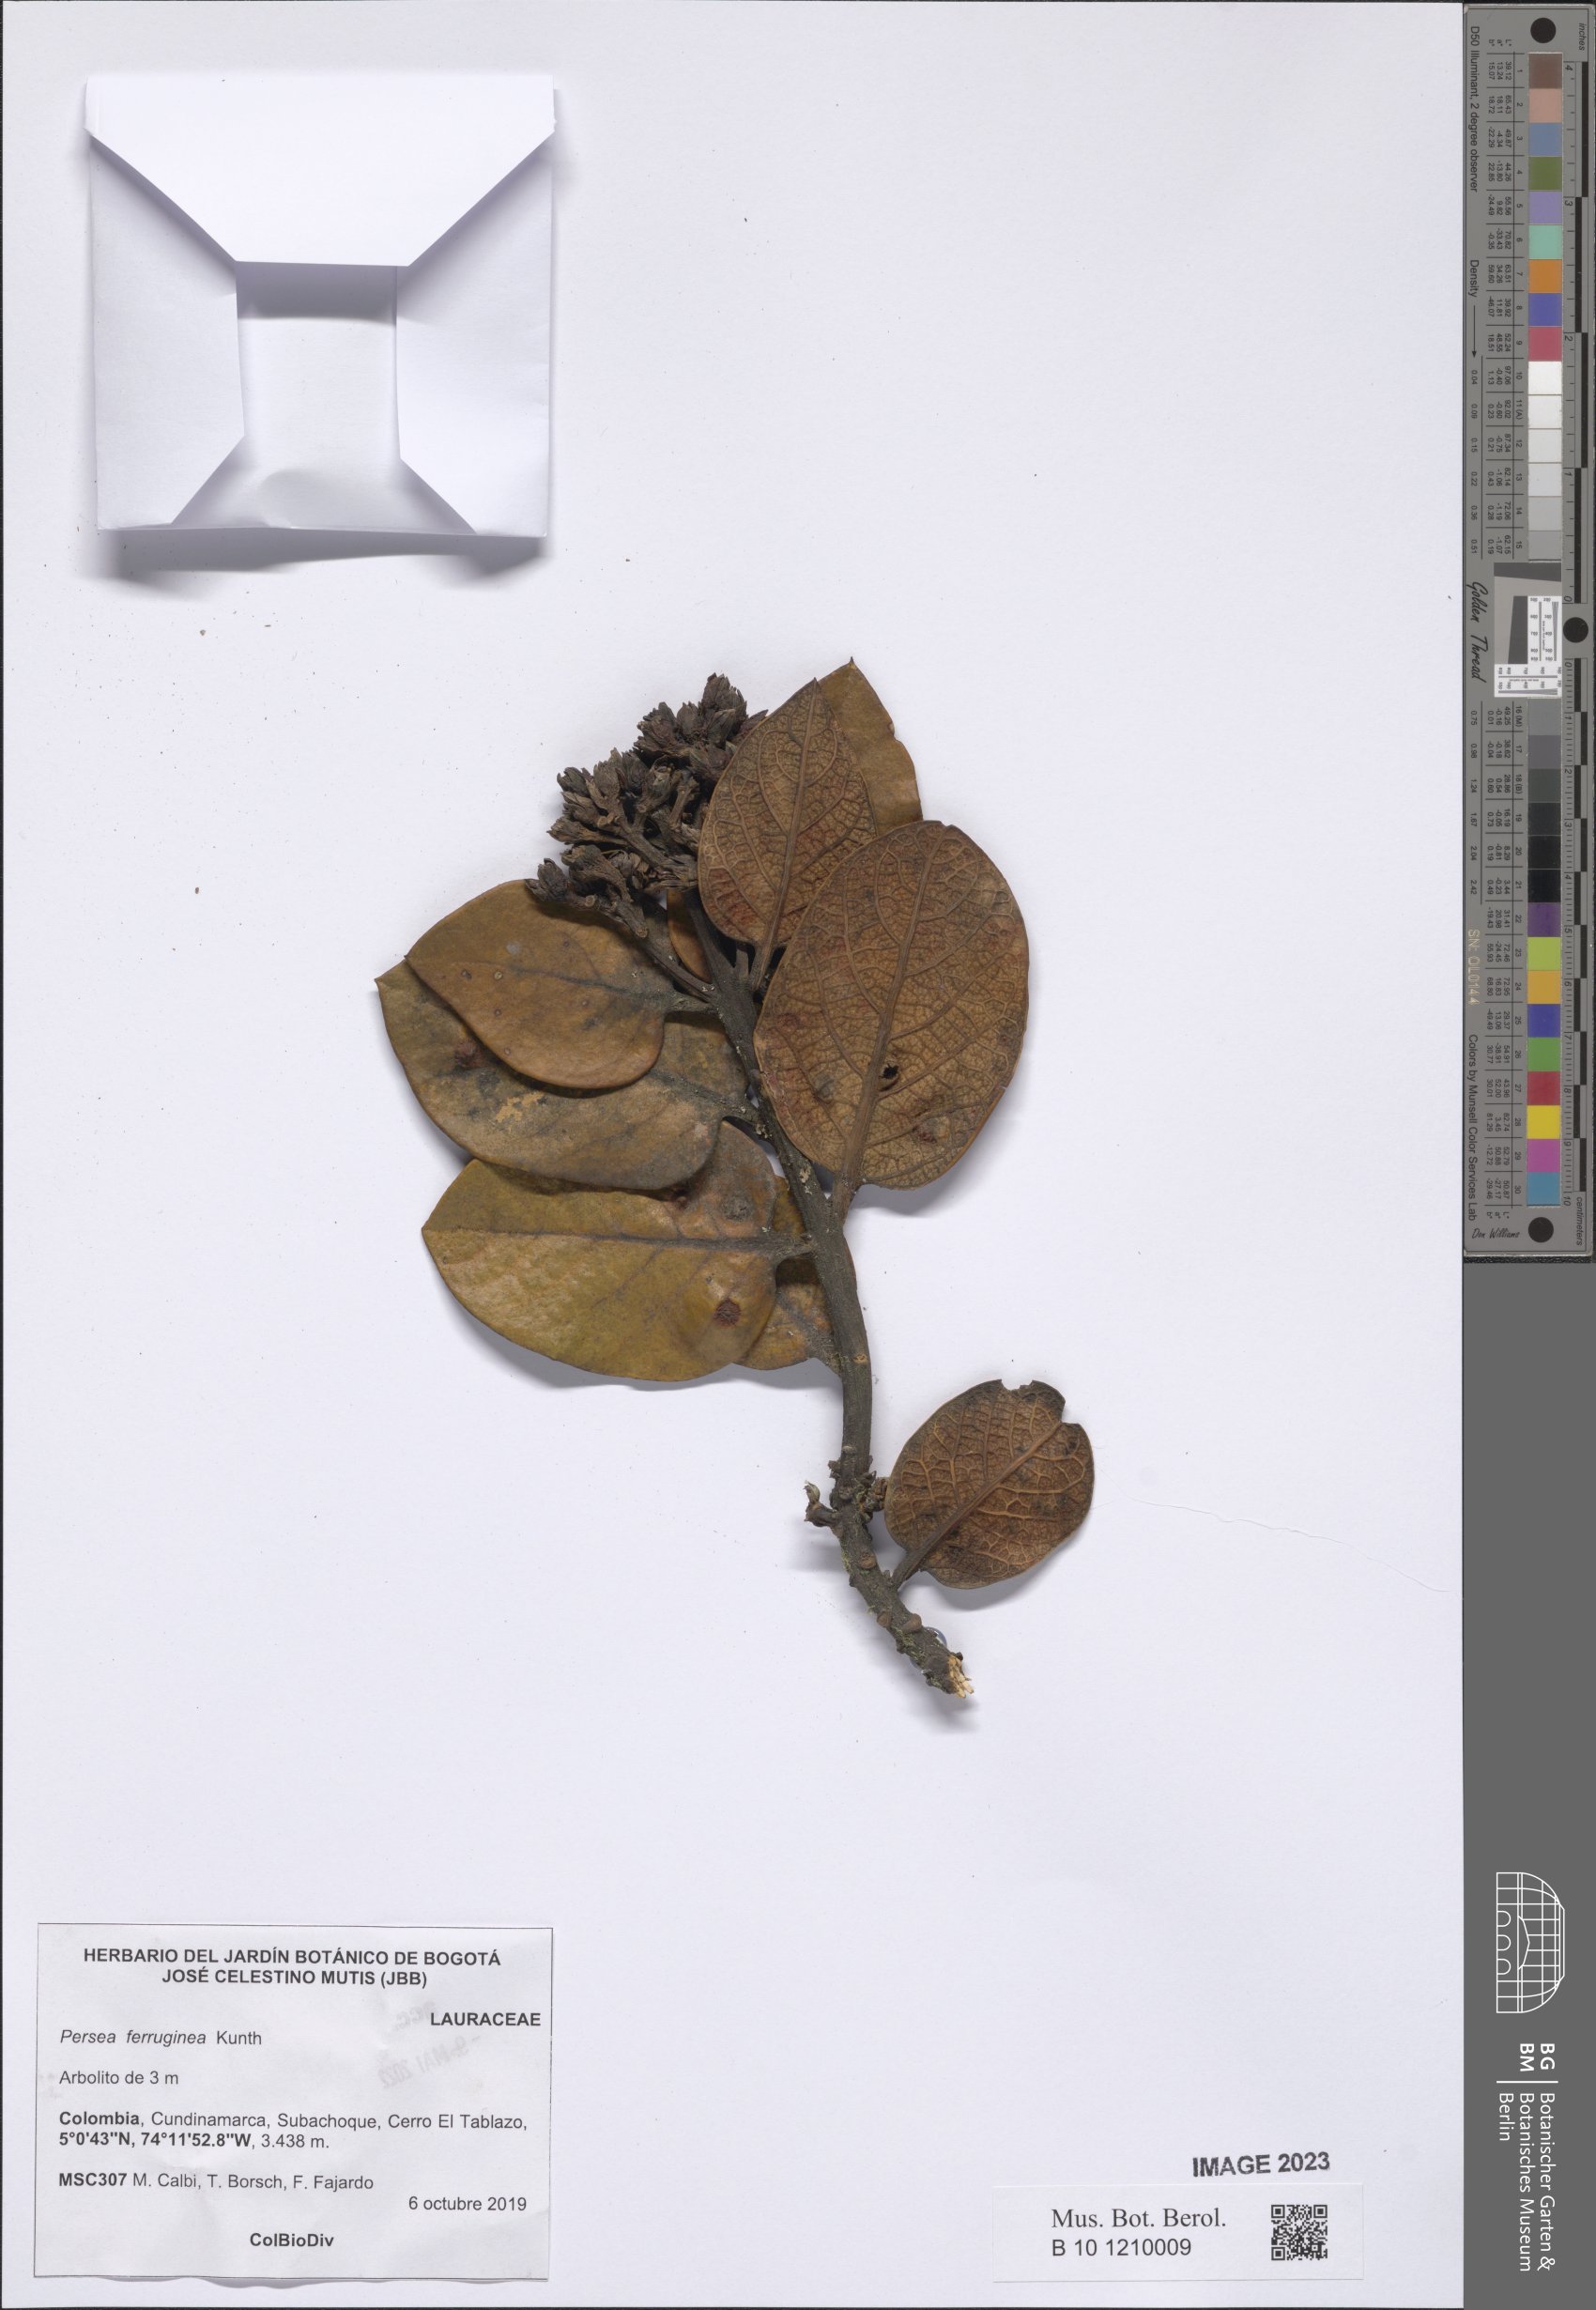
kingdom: Plantae
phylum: Tracheophyta
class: Magnoliopsida
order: Laurales
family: Lauraceae
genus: Persea
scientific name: Persea ferruginea
